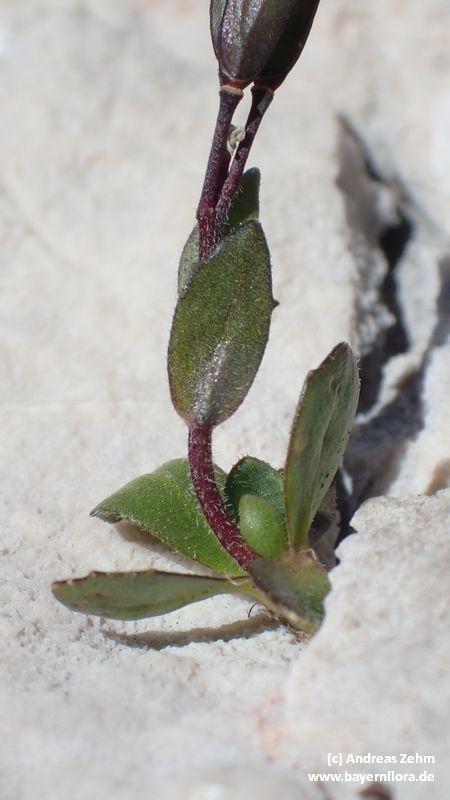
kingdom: Plantae
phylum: Tracheophyta
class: Magnoliopsida
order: Brassicales
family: Brassicaceae
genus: Arabis
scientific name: Arabis caerulea
